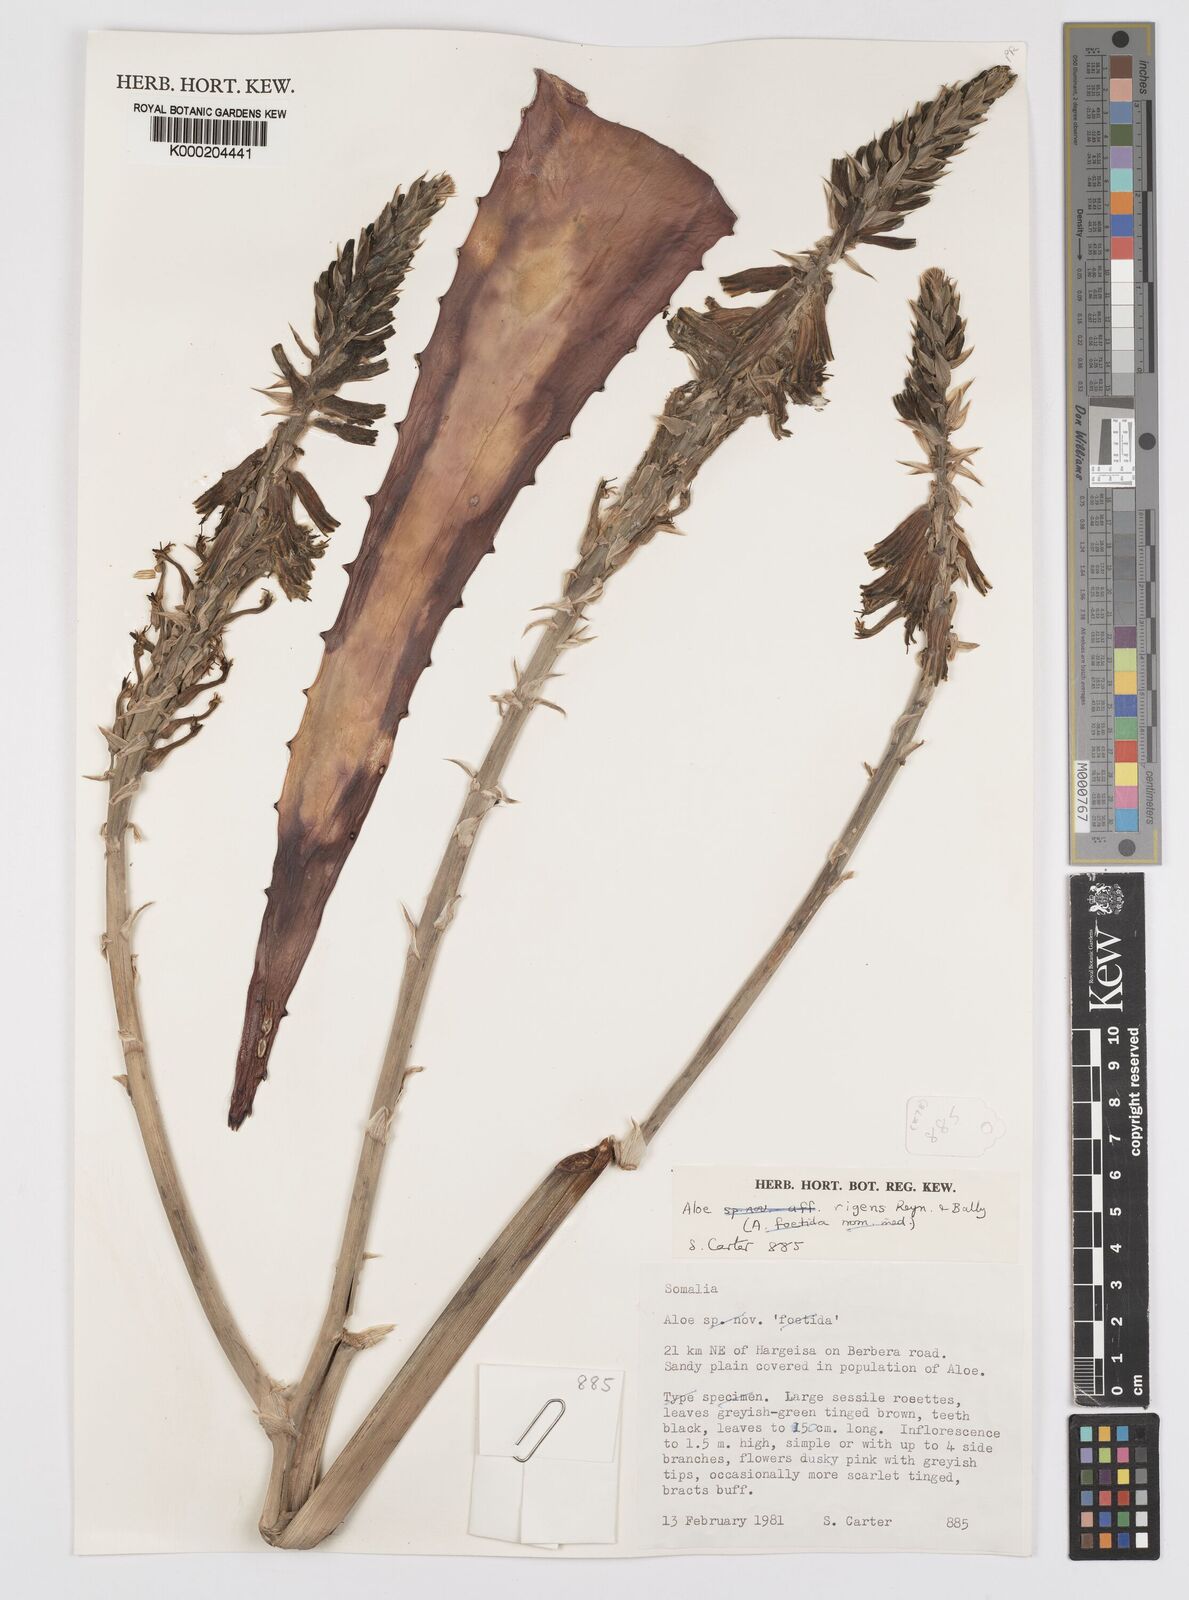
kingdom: Plantae
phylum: Tracheophyta
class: Liliopsida
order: Asparagales
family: Asphodelaceae
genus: Aloe
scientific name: Aloe rigens
